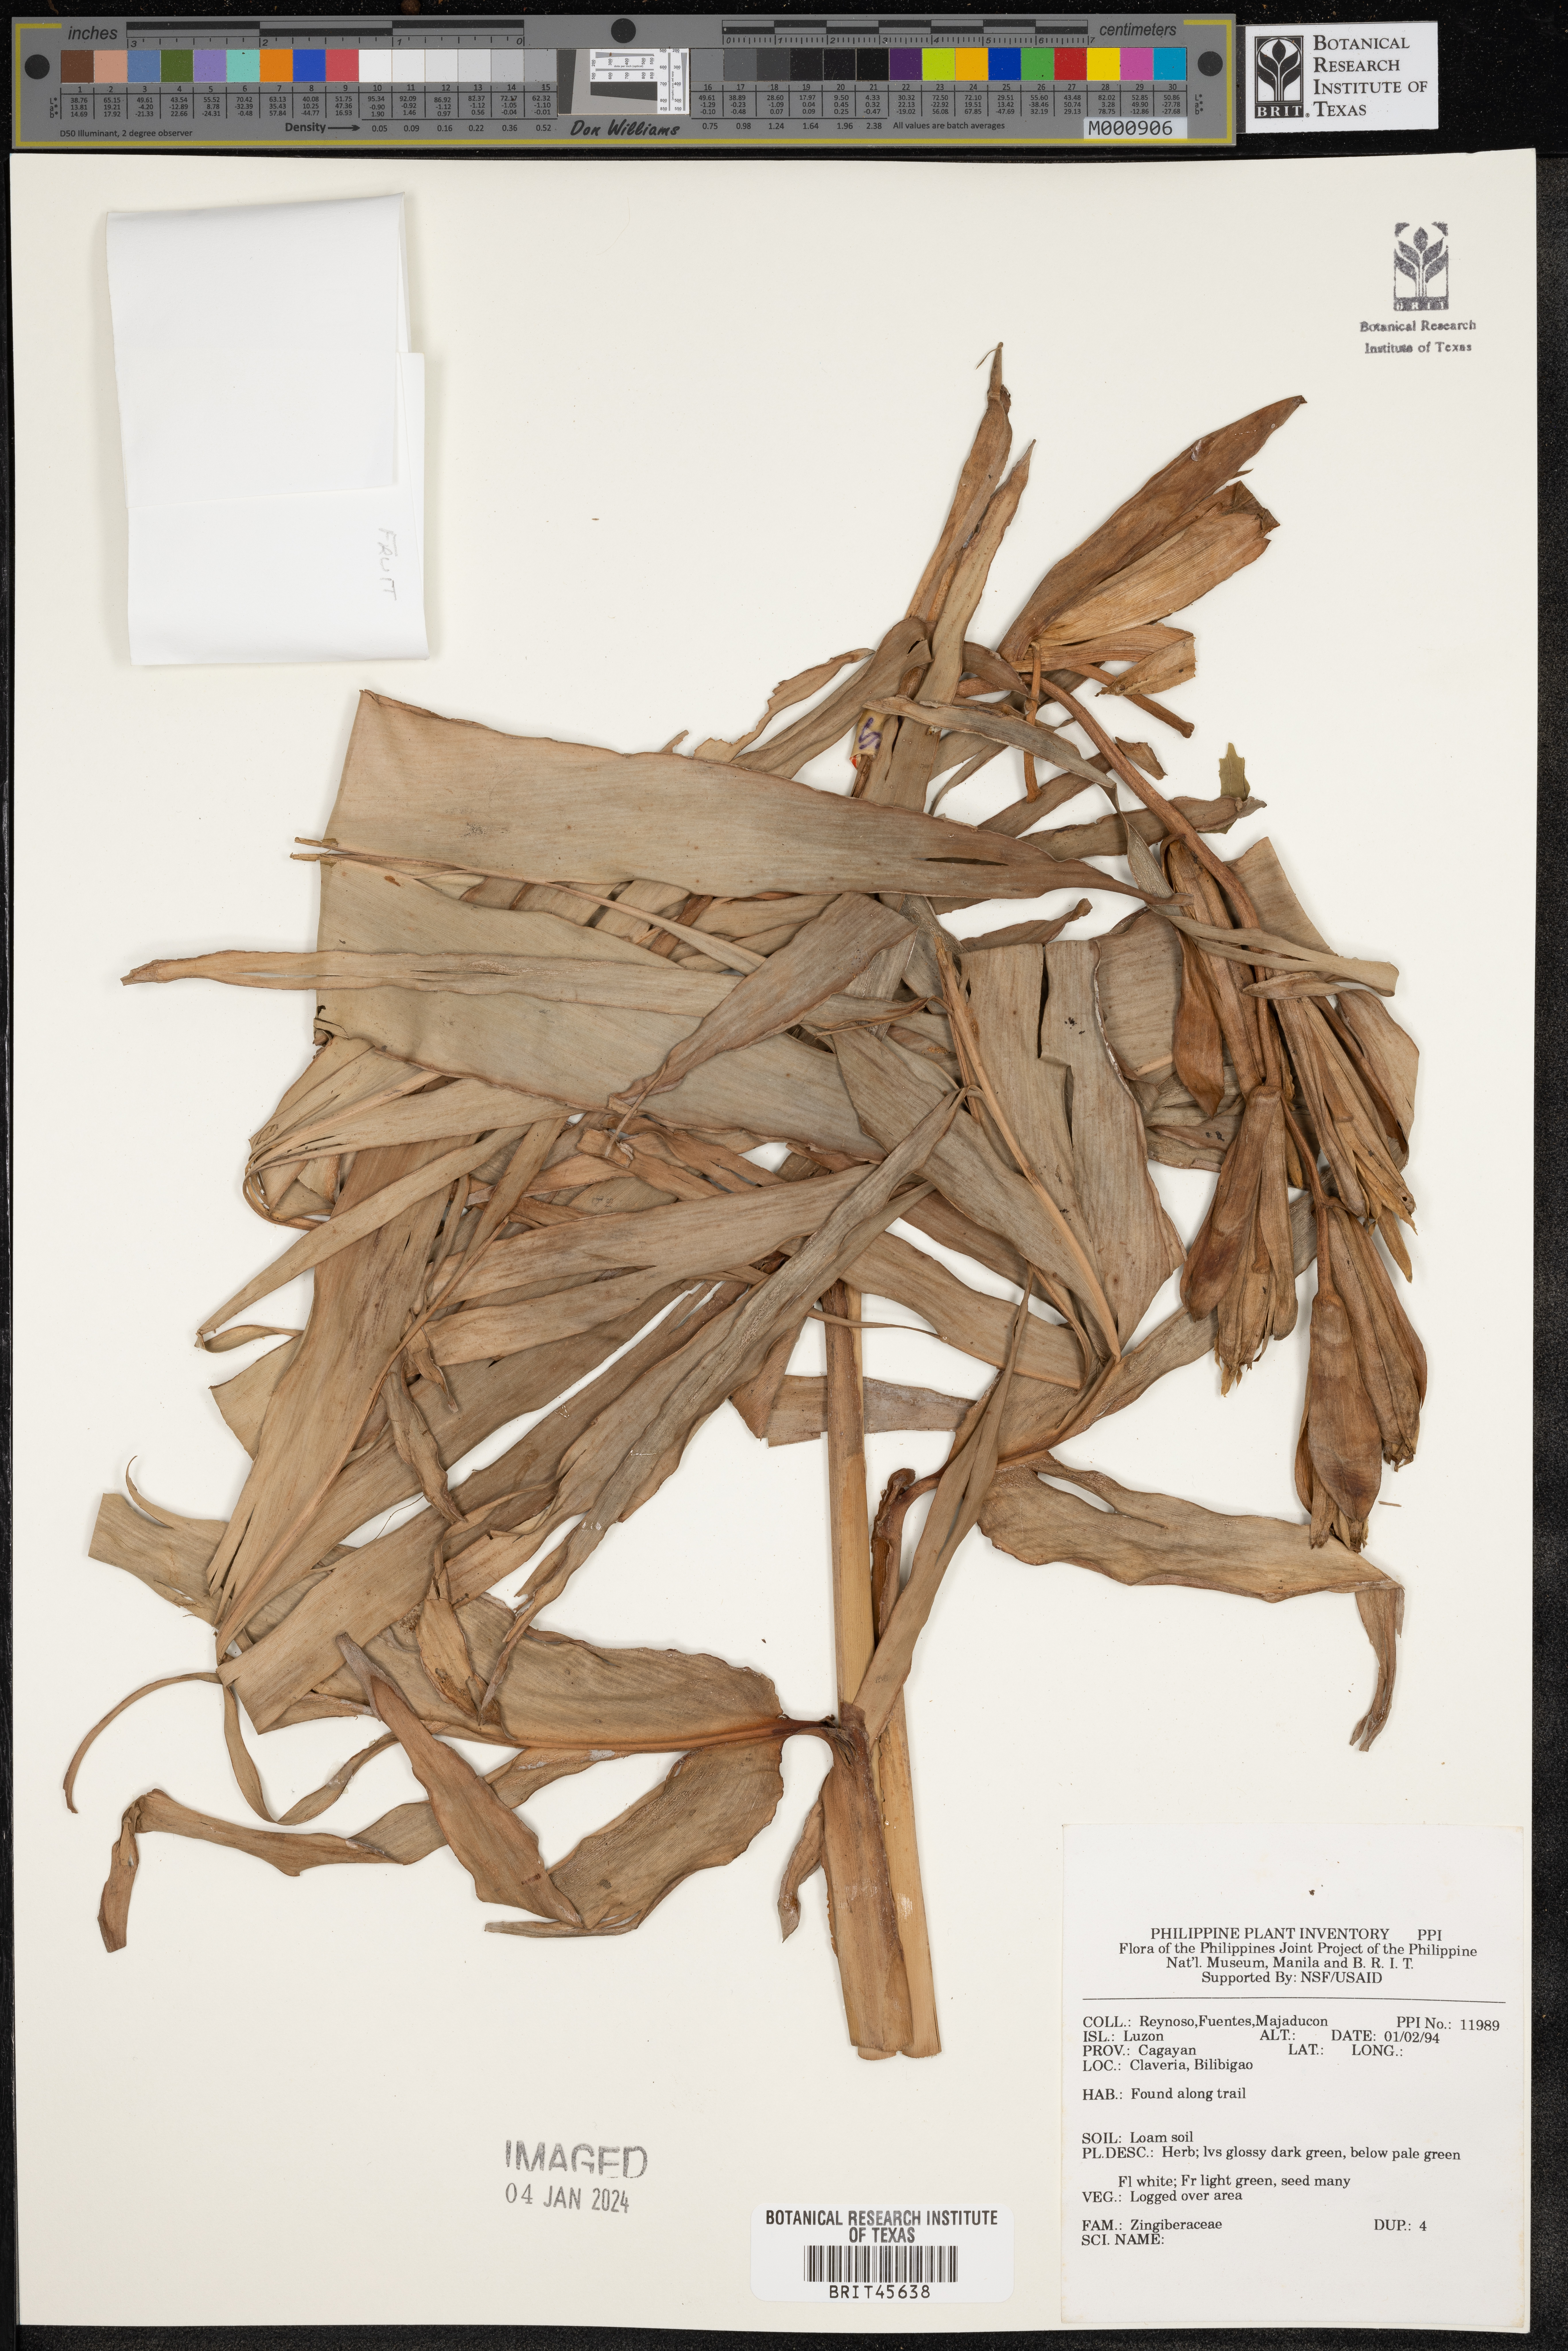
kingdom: Plantae
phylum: Tracheophyta
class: Liliopsida
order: Zingiberales
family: Zingiberaceae
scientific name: Zingiberaceae
